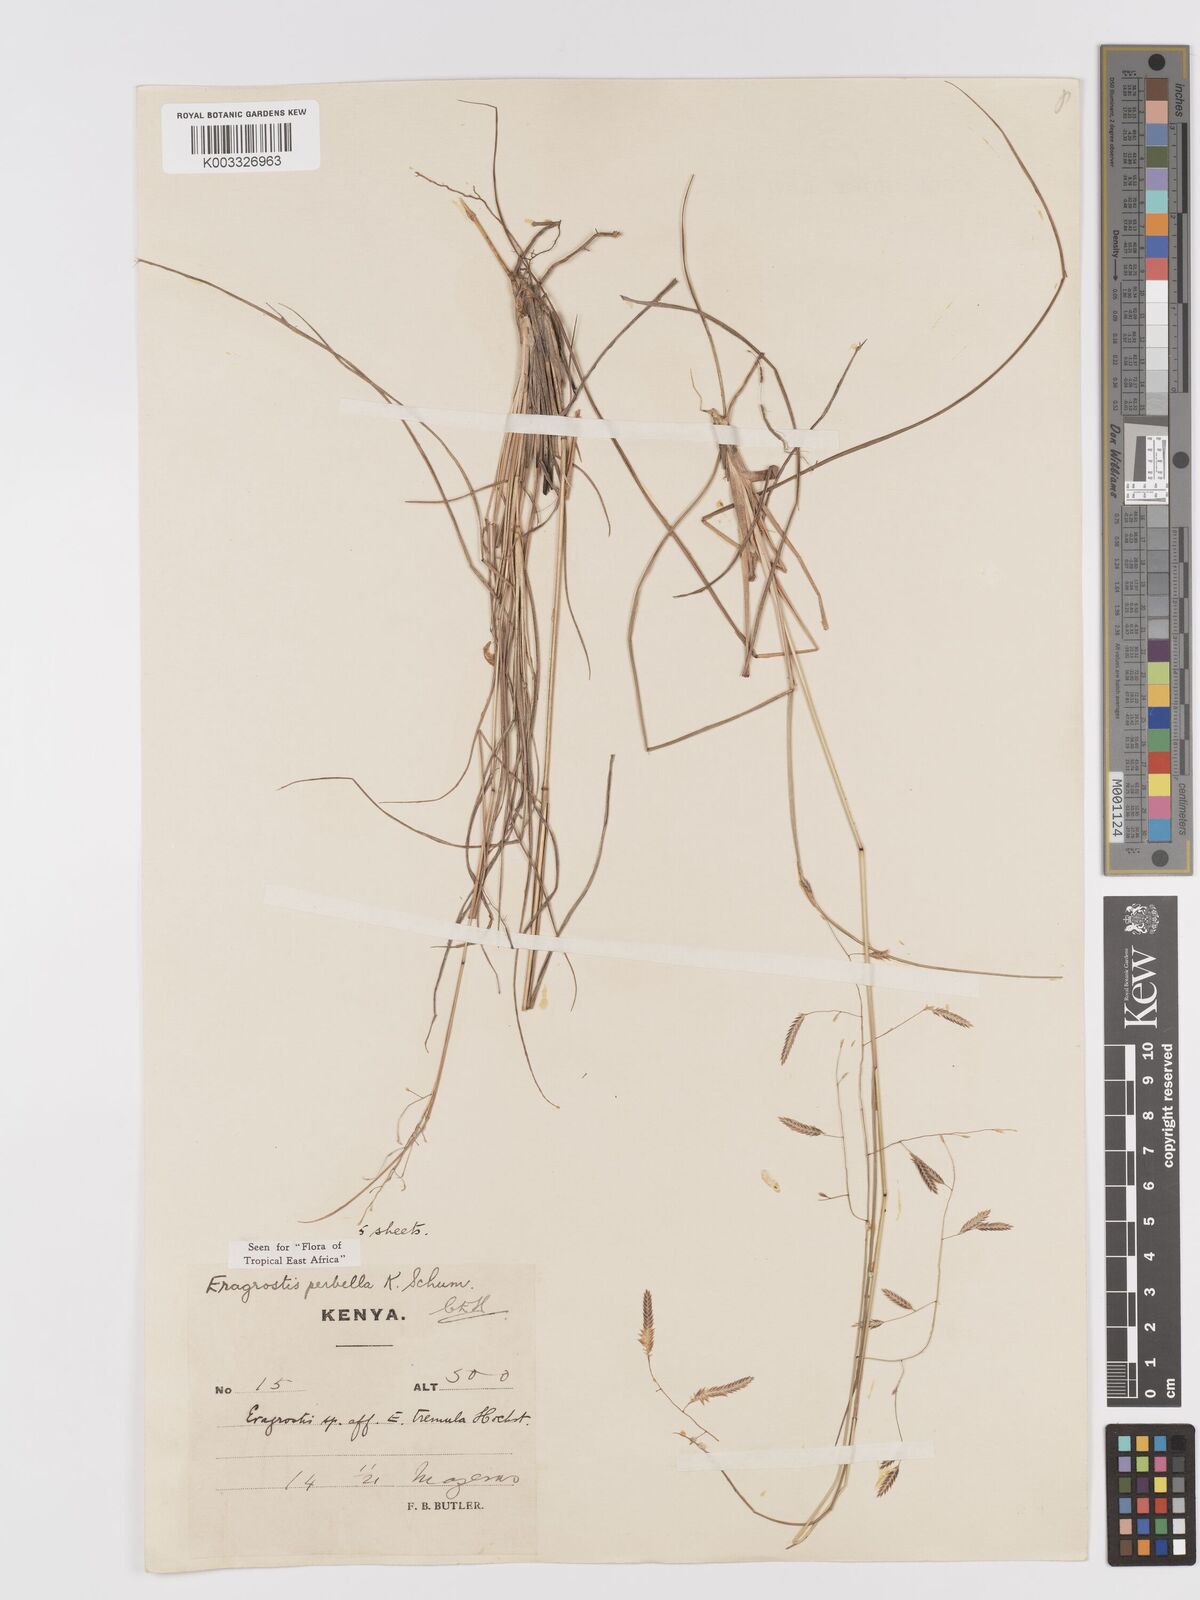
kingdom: Plantae
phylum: Tracheophyta
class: Liliopsida
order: Poales
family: Poaceae
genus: Eragrostis
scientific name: Eragrostis perbella
